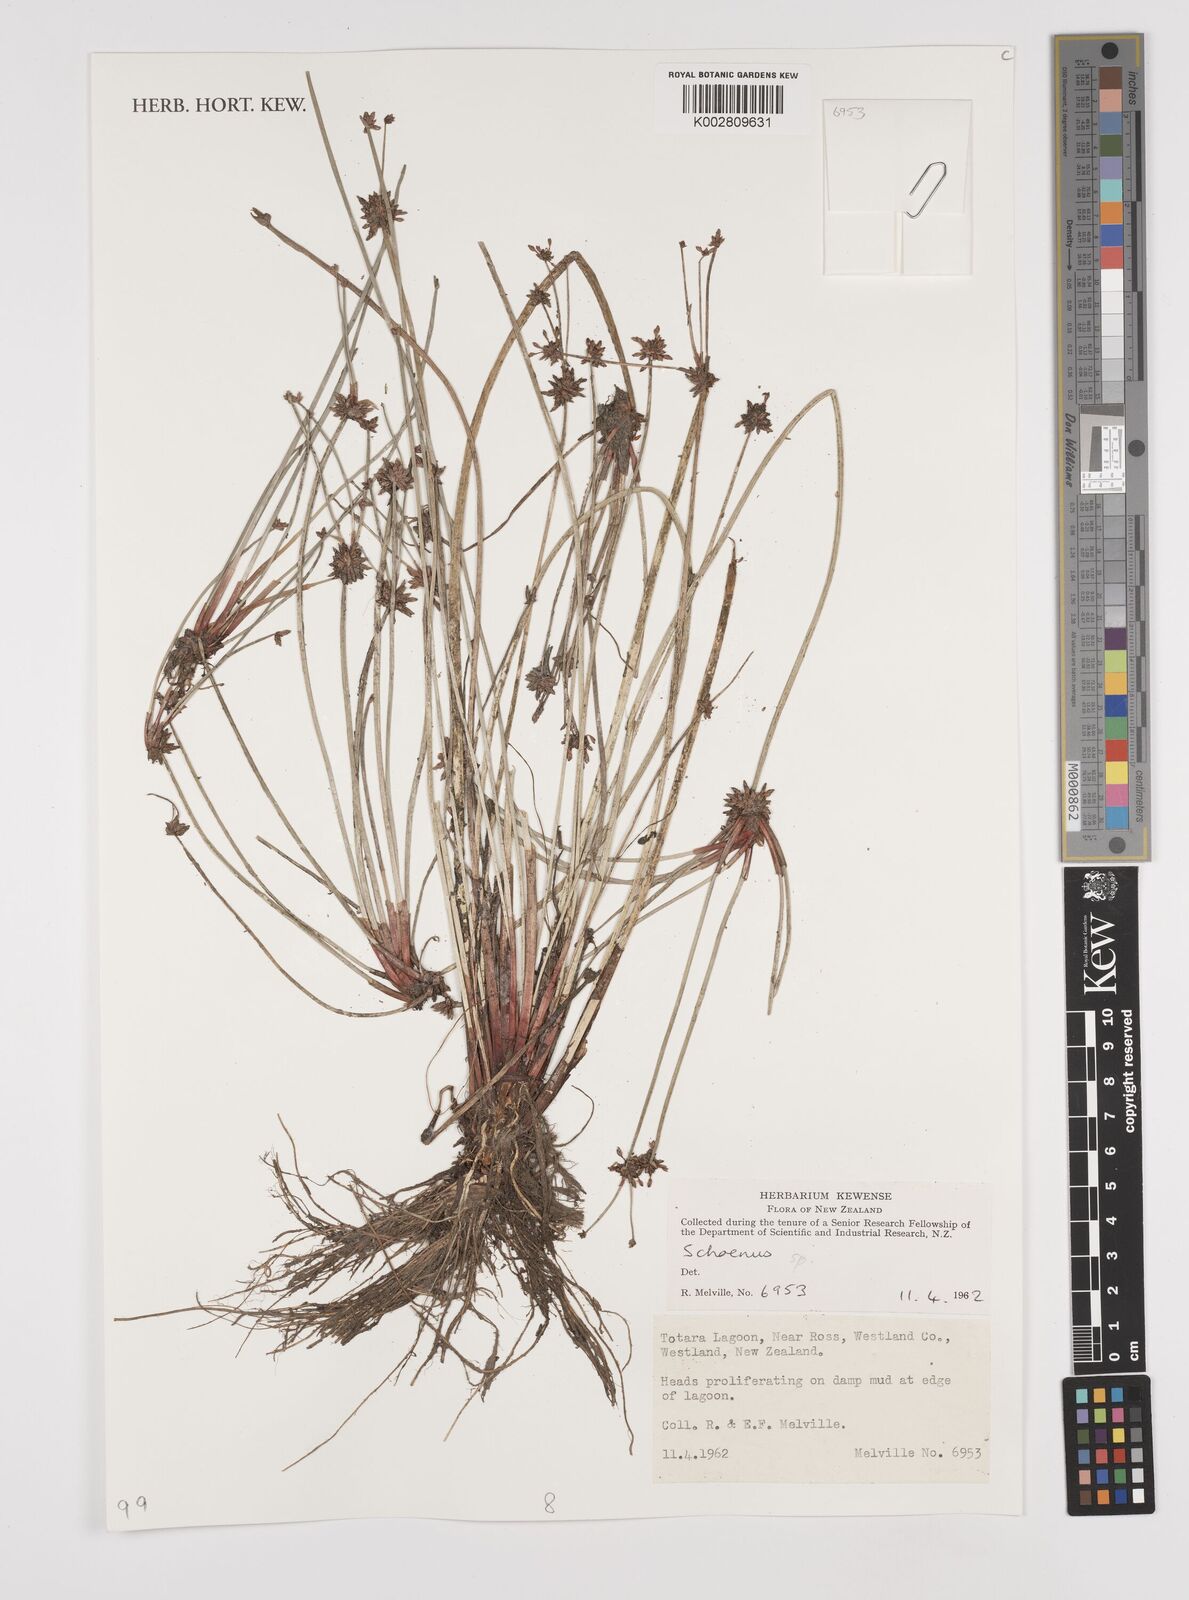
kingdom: Plantae
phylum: Tracheophyta
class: Liliopsida
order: Poales
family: Cyperaceae
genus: Schoenus
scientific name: Schoenus
